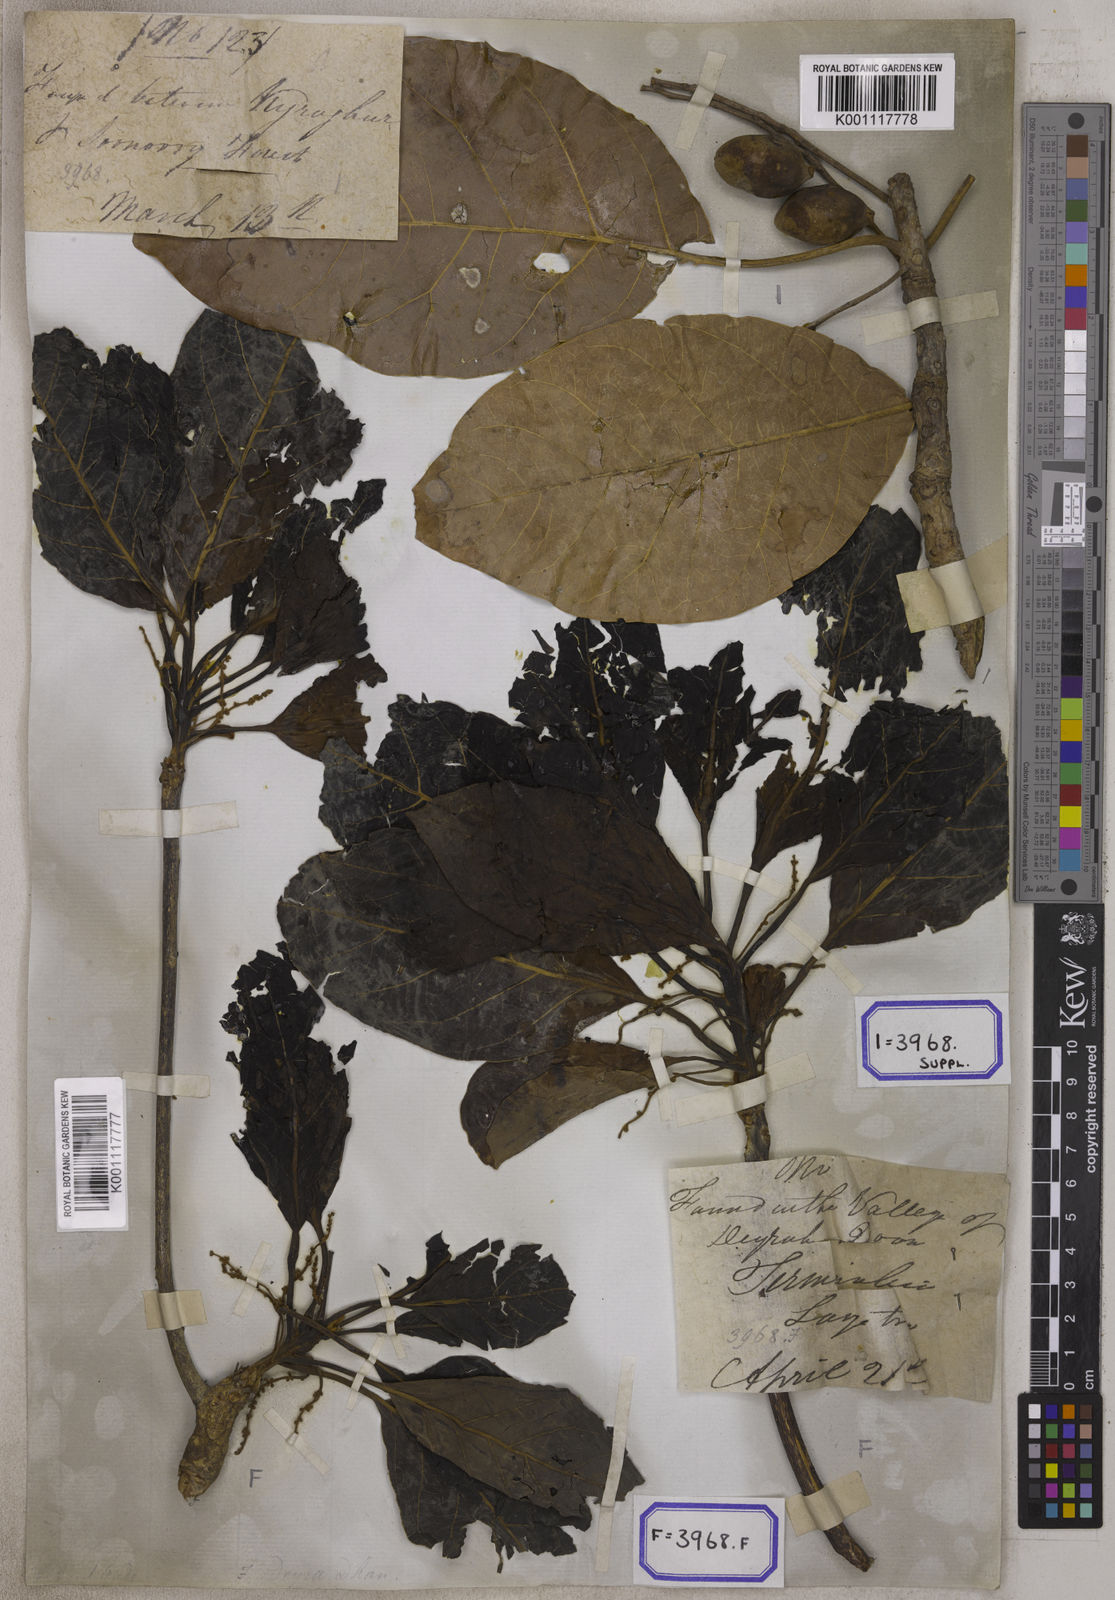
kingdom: Plantae
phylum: Tracheophyta
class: Magnoliopsida
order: Myrtales
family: Combretaceae
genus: Terminalia
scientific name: Terminalia bellirica
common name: Beleric myrobalan
